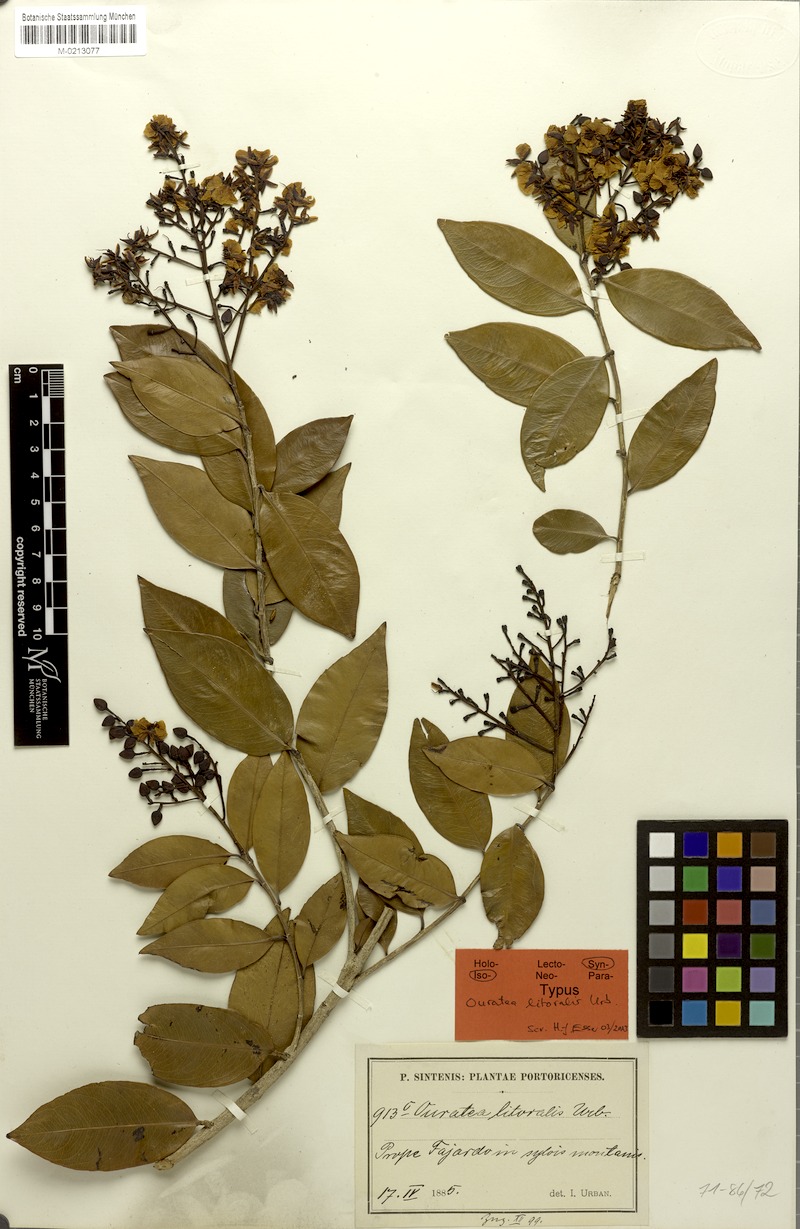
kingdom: Plantae
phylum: Tracheophyta
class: Magnoliopsida
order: Malpighiales
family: Ochnaceae
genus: Ouratea
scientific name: Ouratea litoralis
